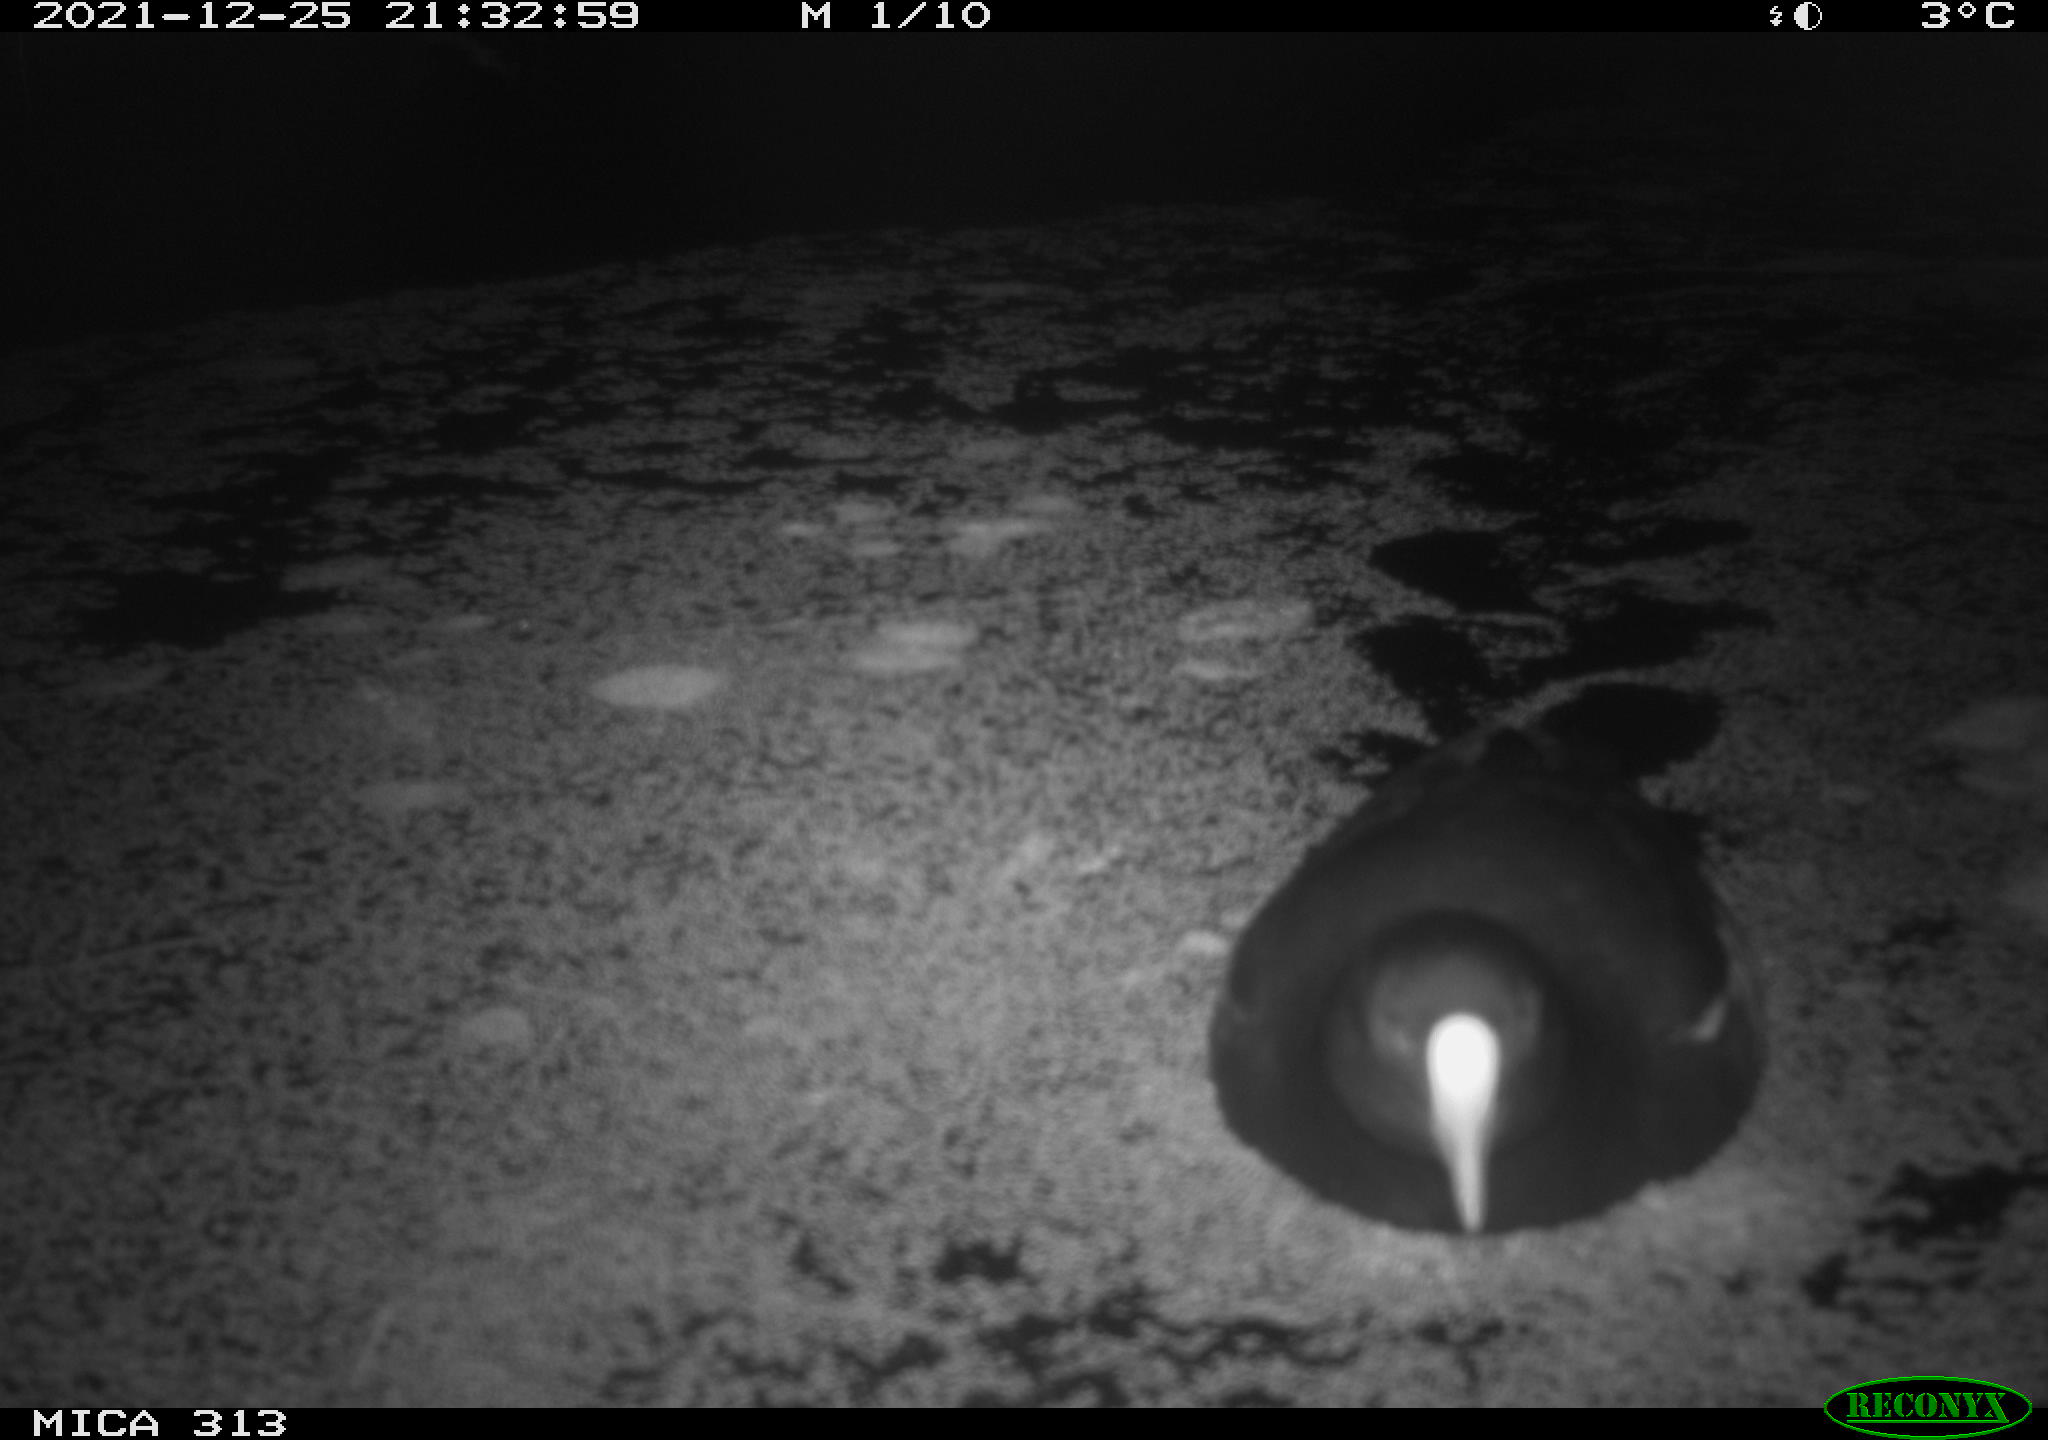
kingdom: Animalia
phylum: Chordata
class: Aves
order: Gruiformes
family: Rallidae
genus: Gallinula
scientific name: Gallinula chloropus
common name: Common moorhen
